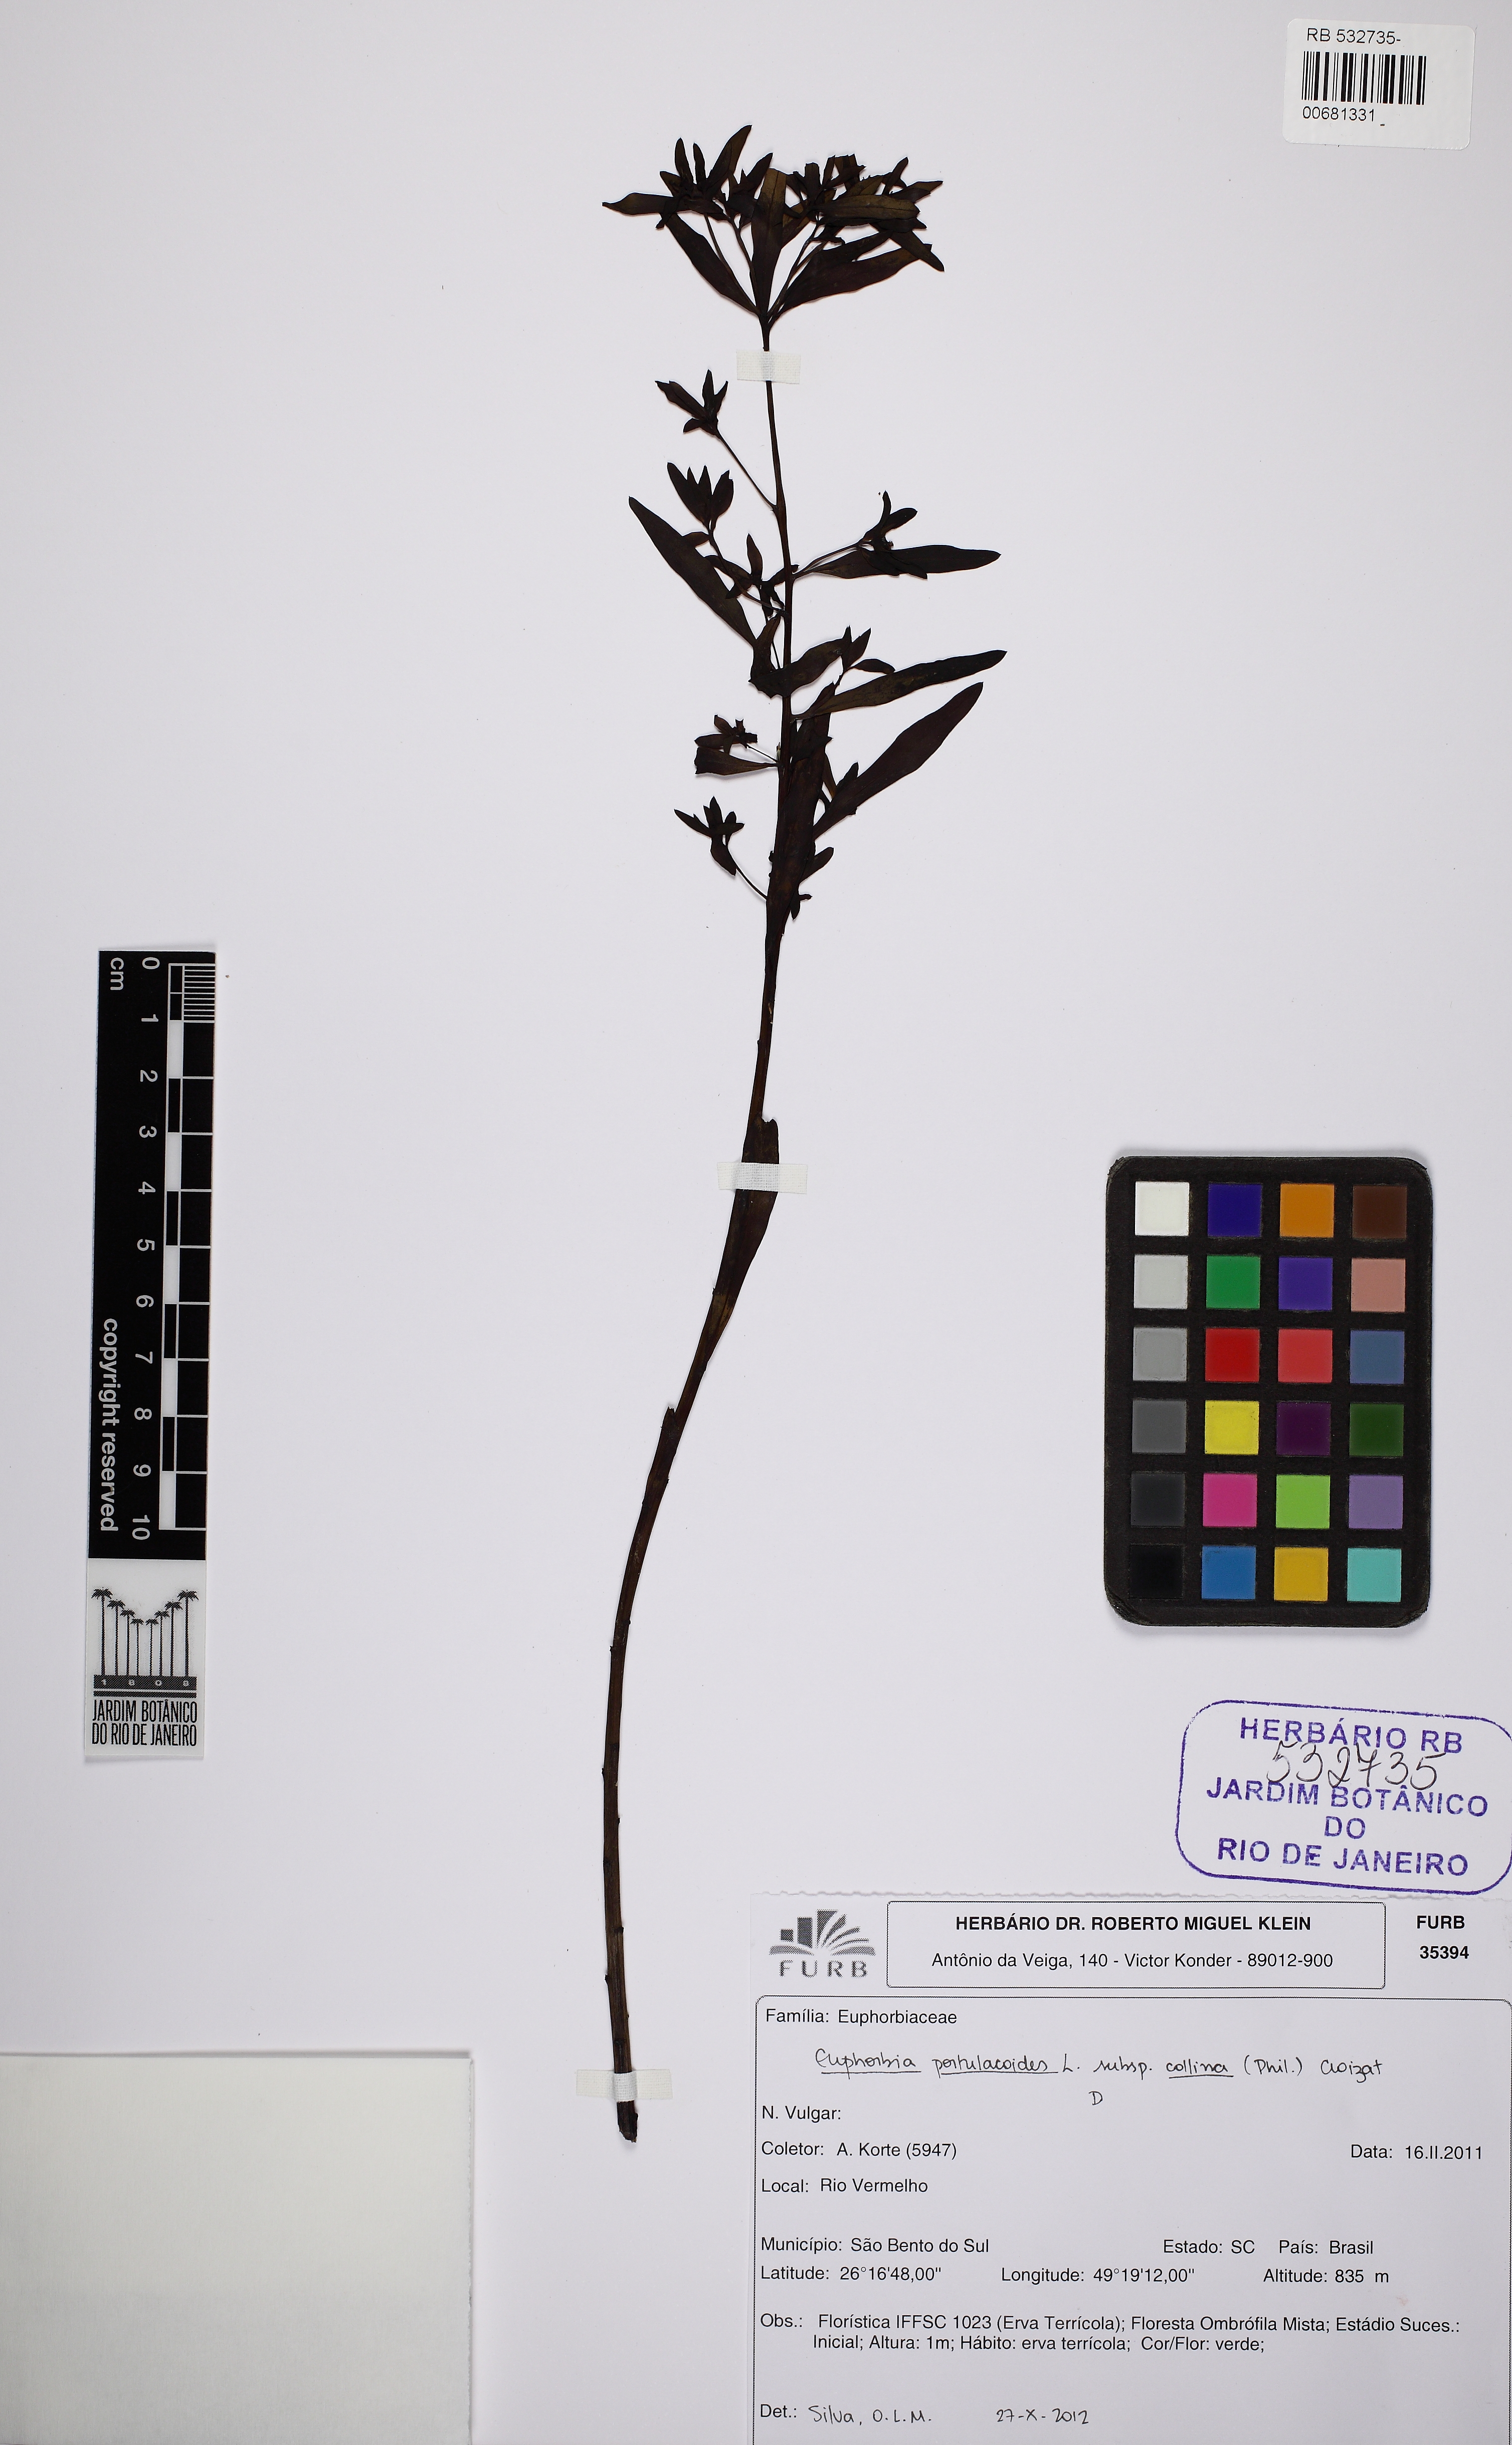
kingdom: Plantae
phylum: Tracheophyta
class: Magnoliopsida
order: Malpighiales
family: Euphorbiaceae
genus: Euphorbia
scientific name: Euphorbia collina
